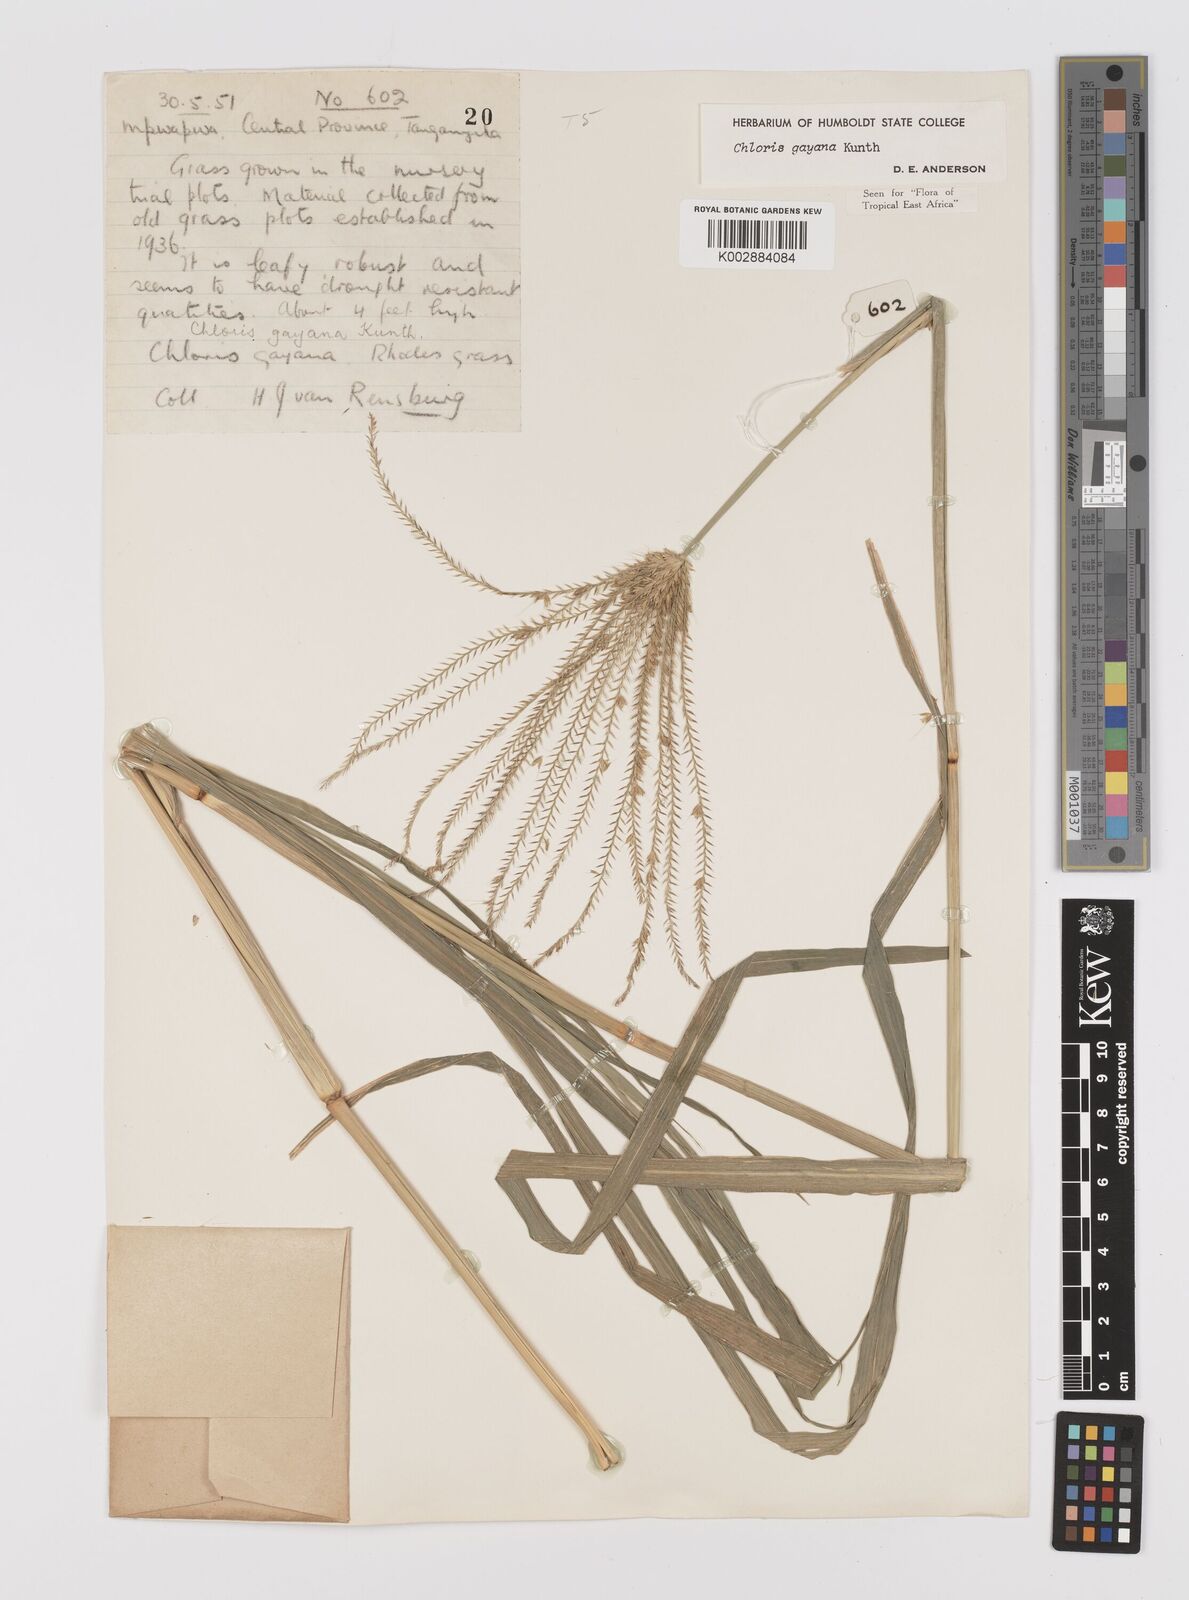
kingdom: Plantae
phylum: Tracheophyta
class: Liliopsida
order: Poales
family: Poaceae
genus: Chloris
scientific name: Chloris gayana
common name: Rhodes grass
